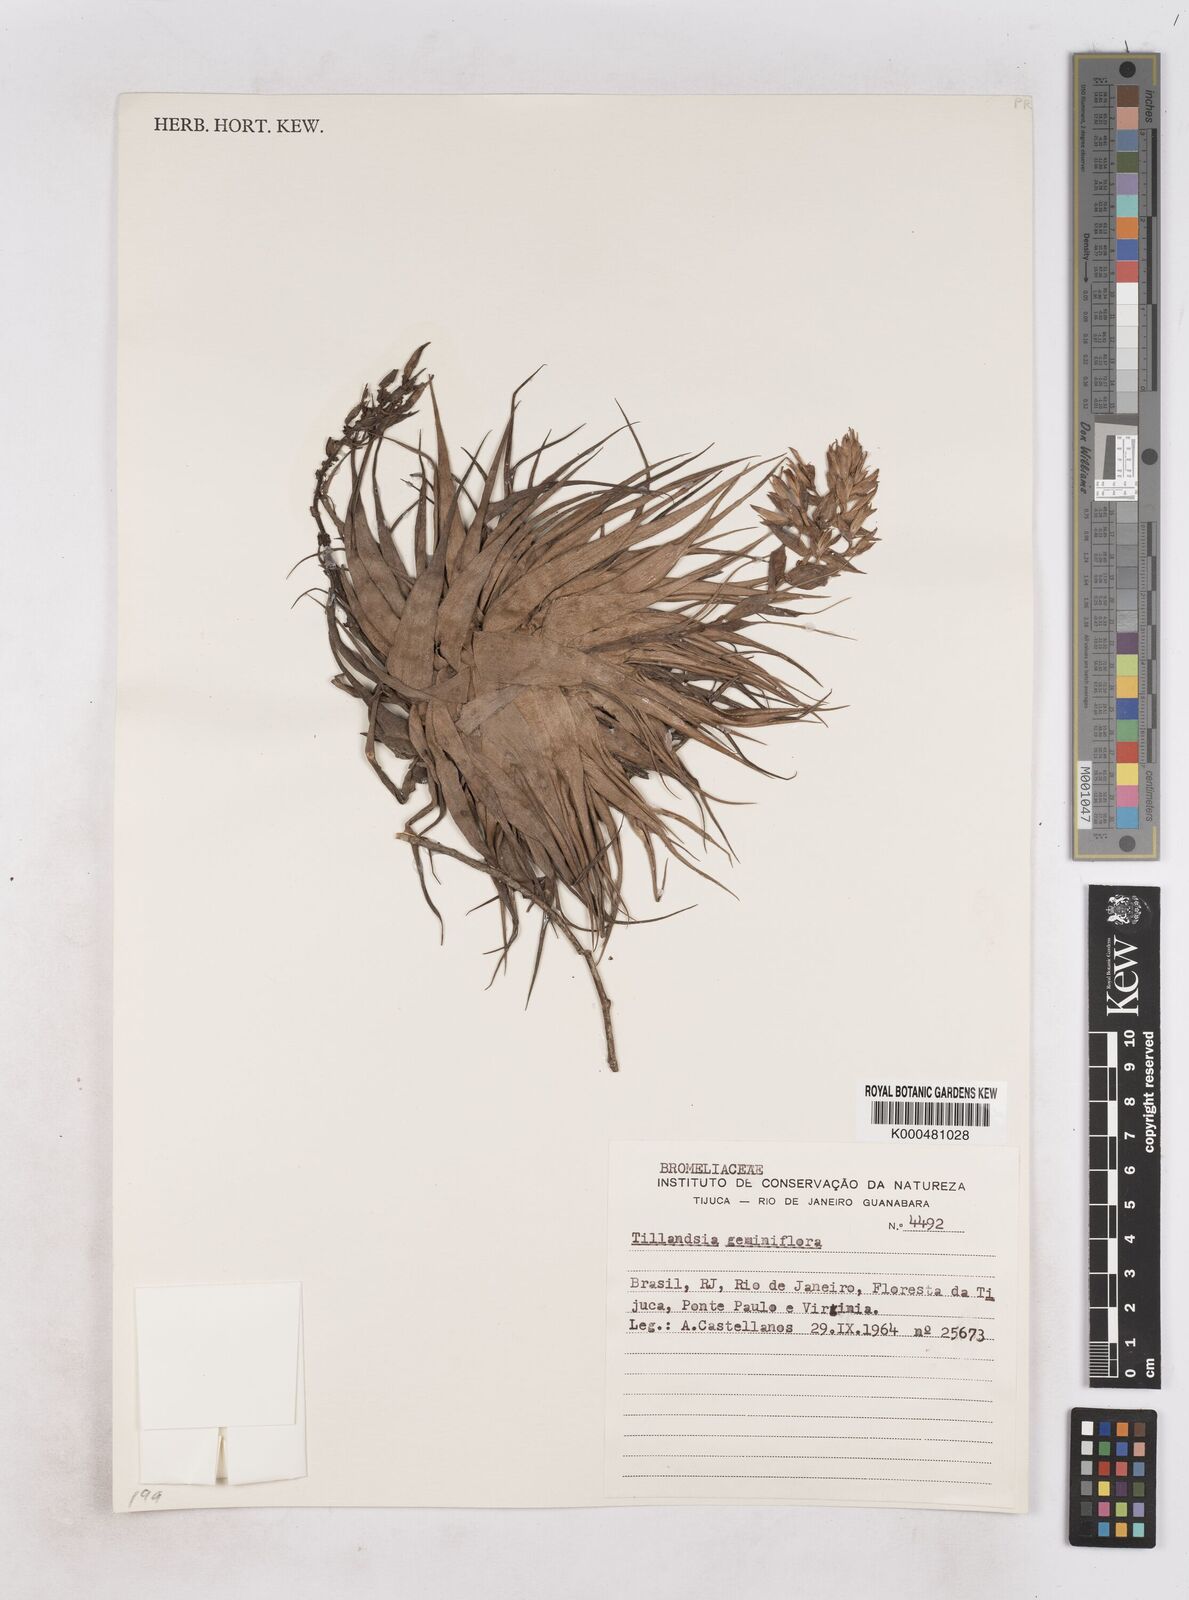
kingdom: Plantae
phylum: Tracheophyta
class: Liliopsida
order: Poales
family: Bromeliaceae
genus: Tillandsia
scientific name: Tillandsia geminiflora
